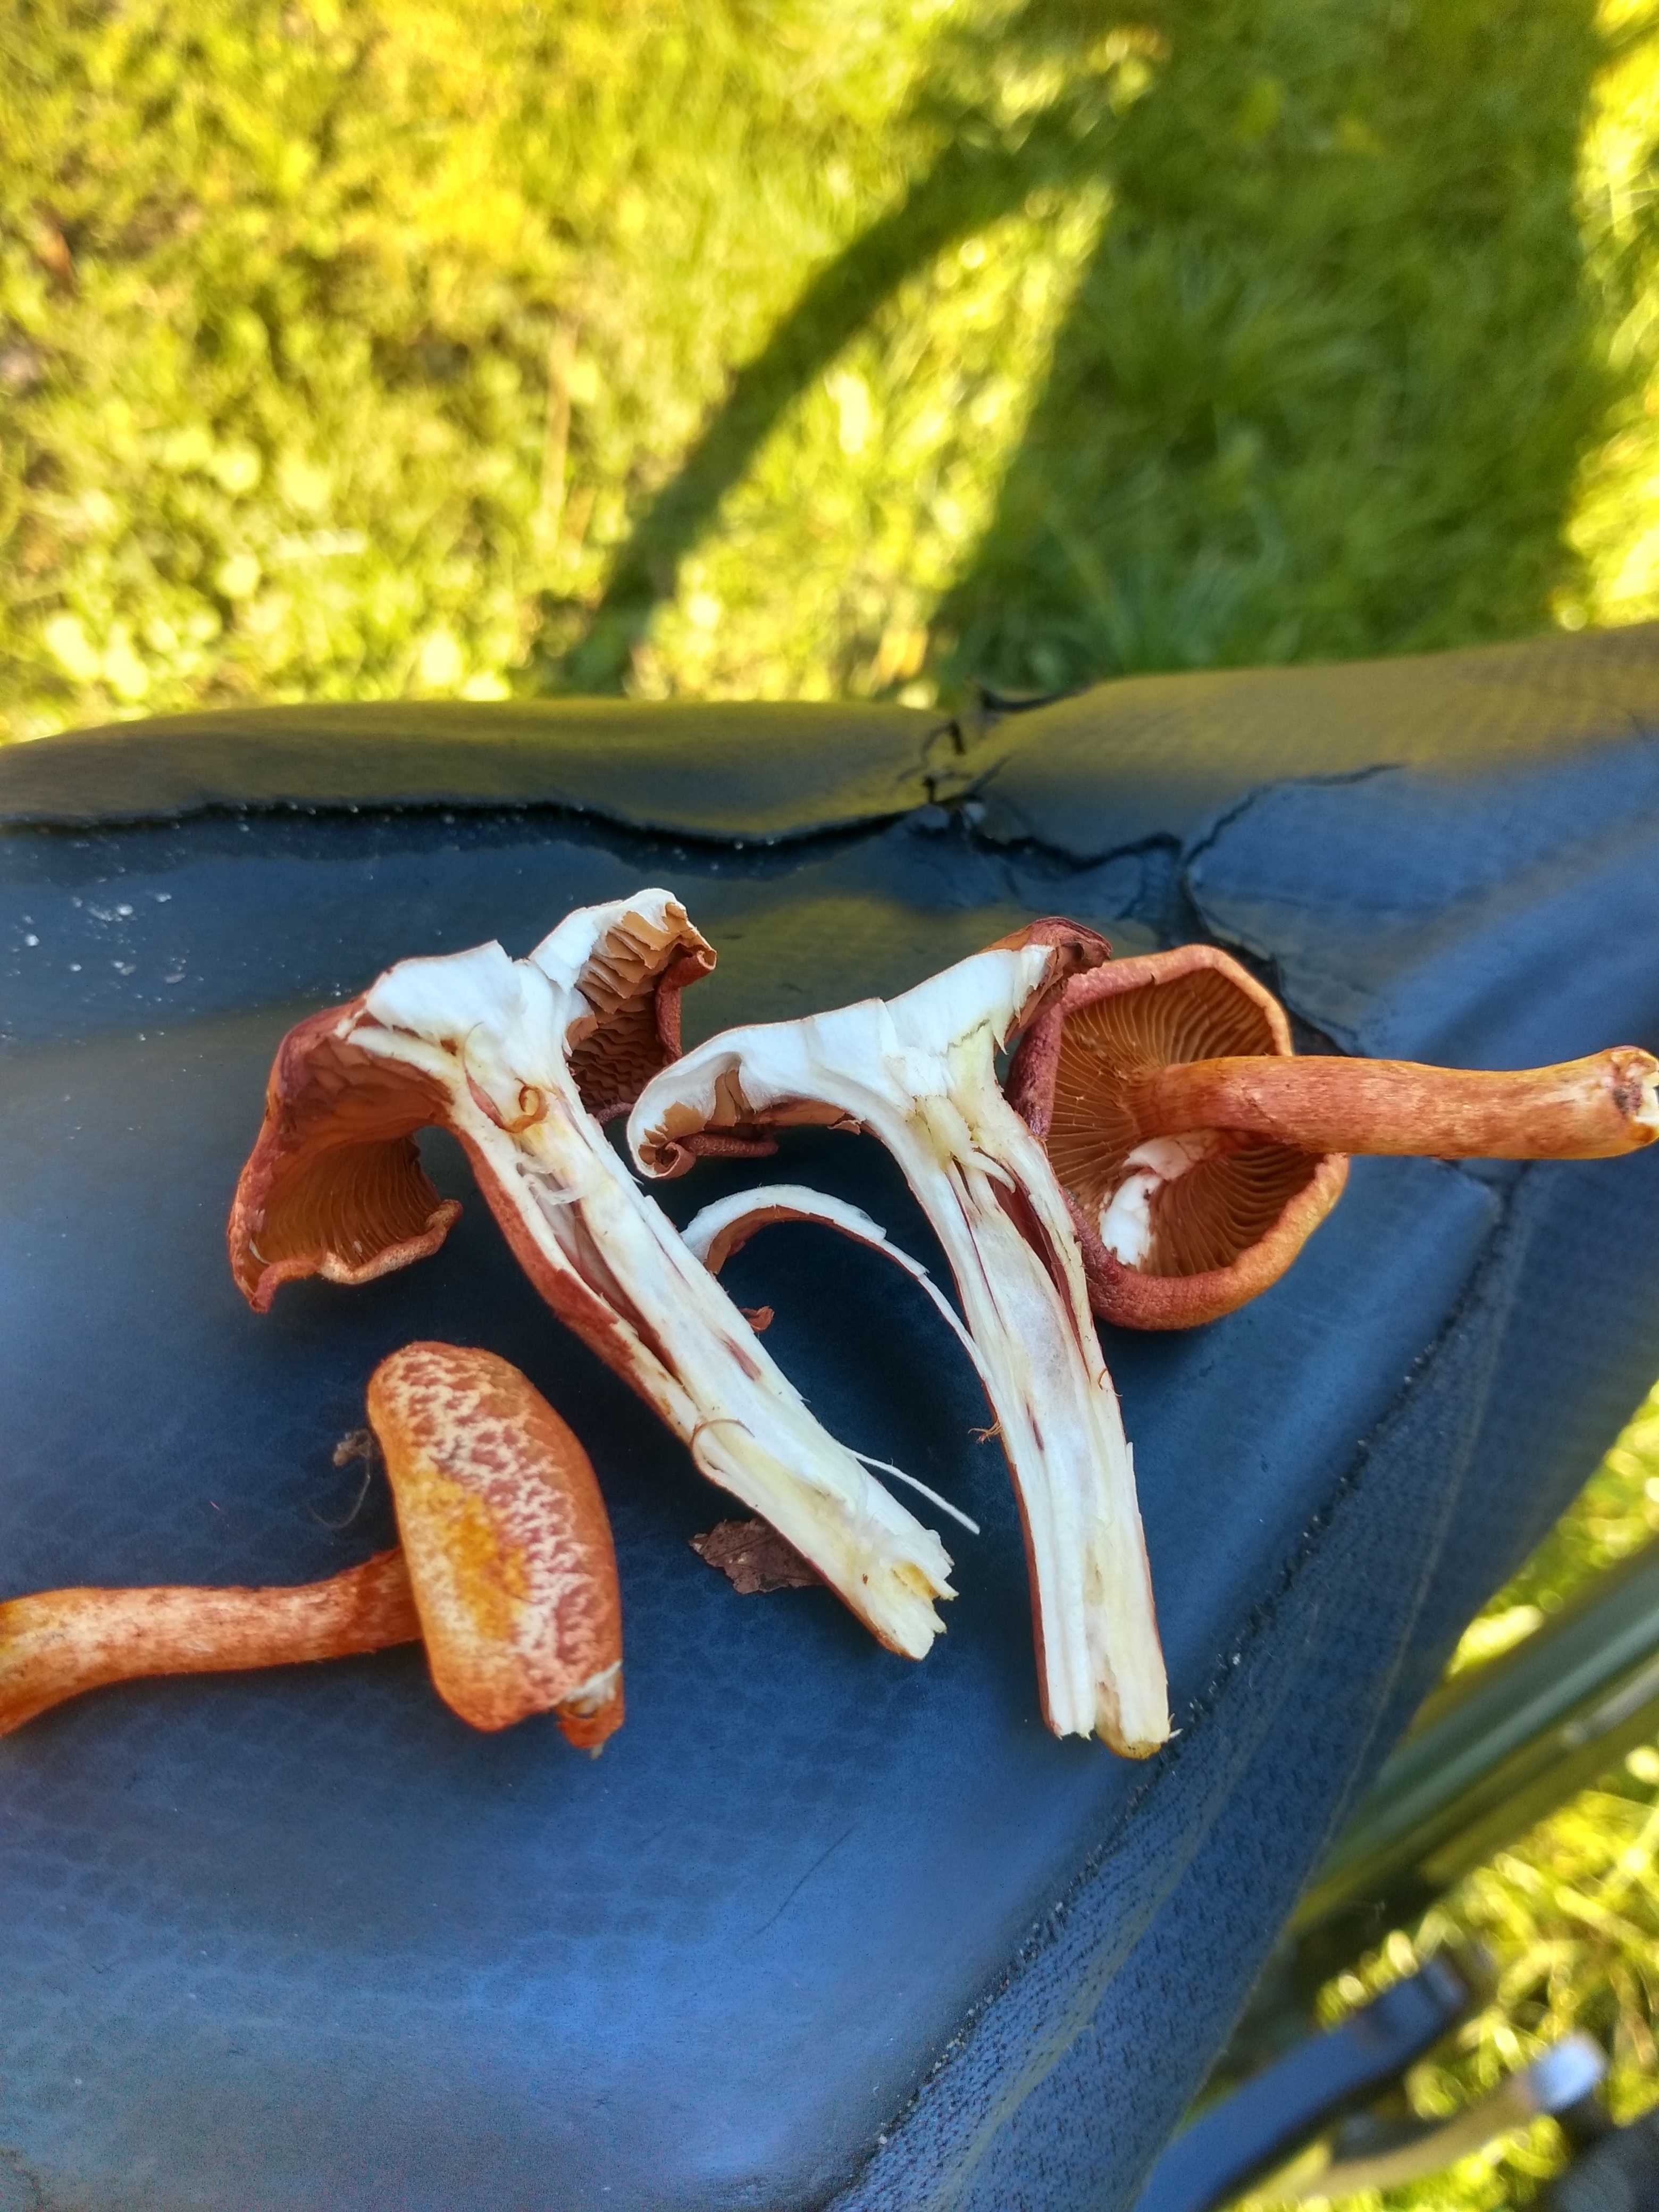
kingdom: Fungi
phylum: Basidiomycota
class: Agaricomycetes
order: Agaricales
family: Cortinariaceae
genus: Cortinarius
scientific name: Cortinarius bolaris
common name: cinnoberskællet slørhat
